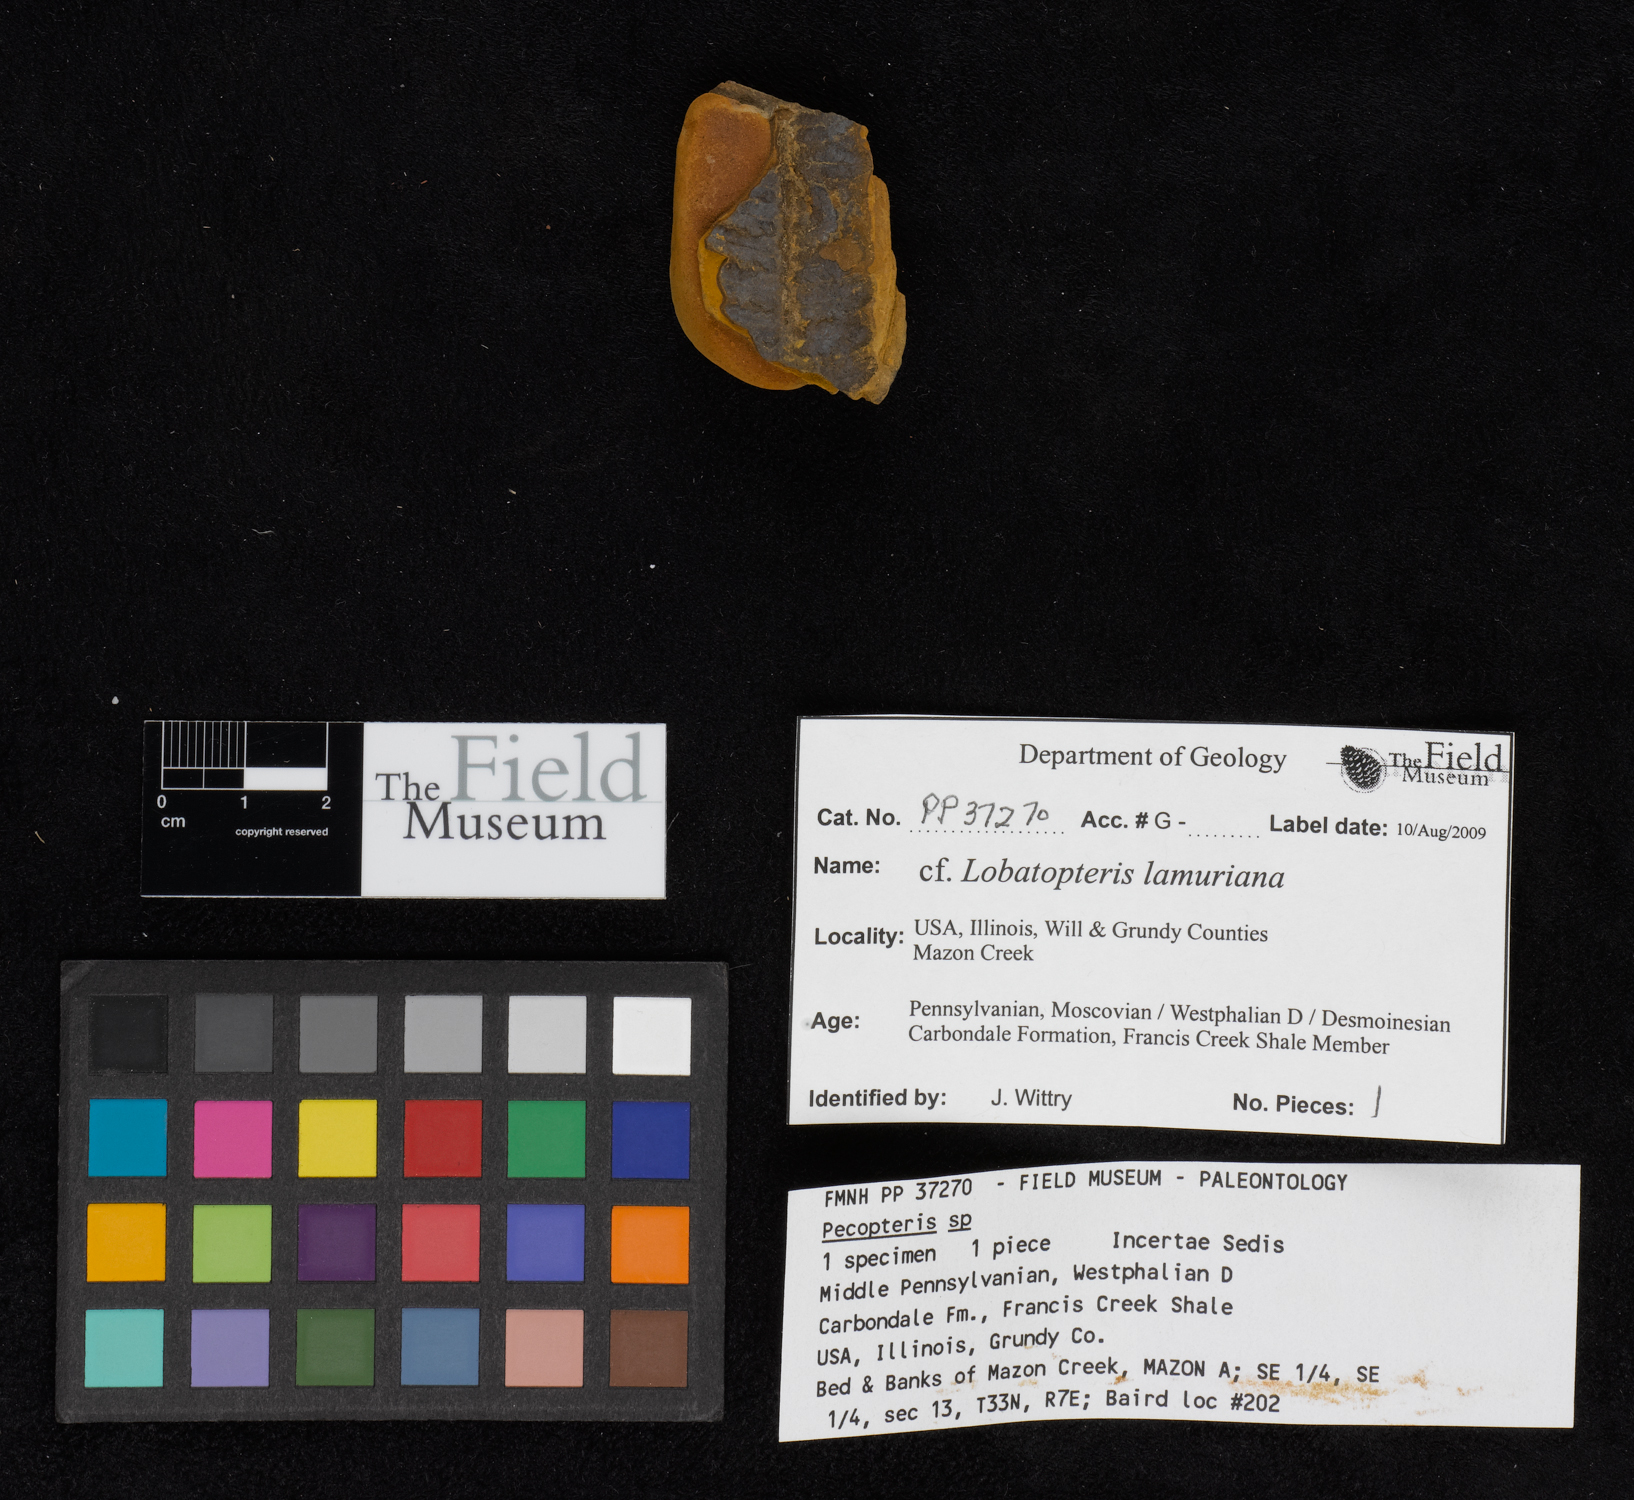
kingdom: Plantae
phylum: Tracheophyta
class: Polypodiopsida
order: Marattiales
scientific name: Marattiales
